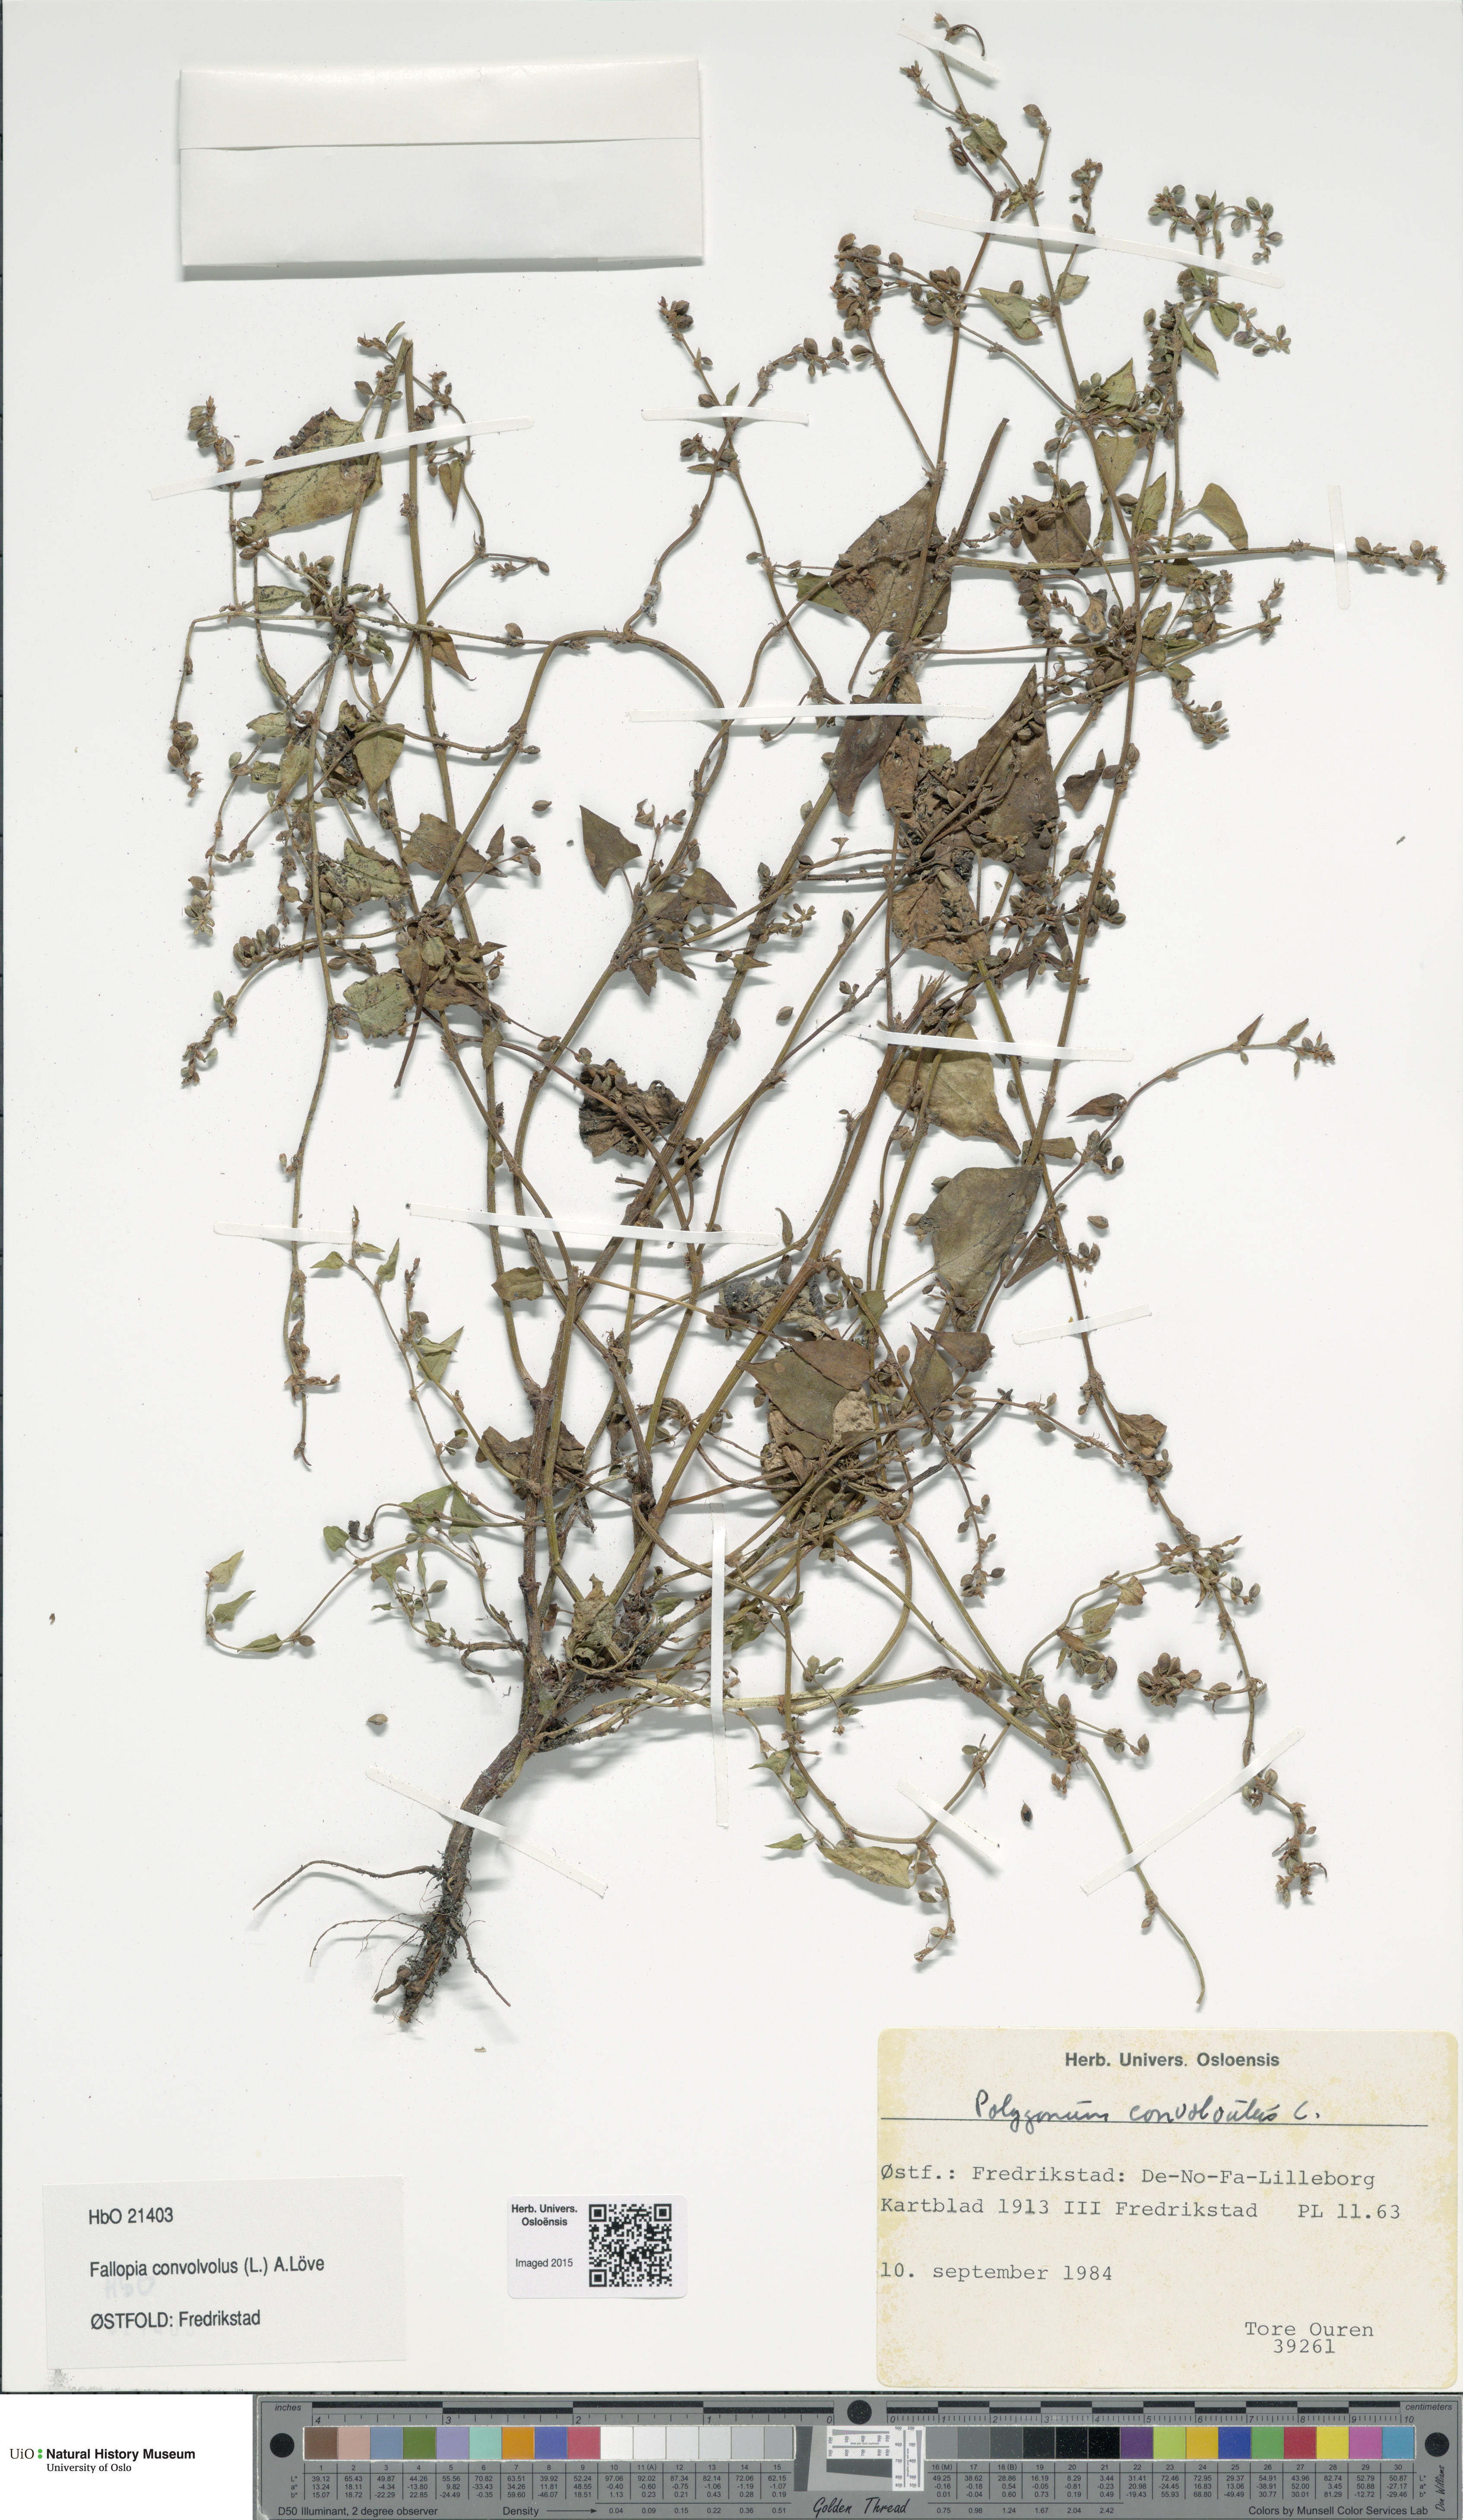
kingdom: Plantae
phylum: Tracheophyta
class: Magnoliopsida
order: Caryophyllales
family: Polygonaceae
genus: Fallopia
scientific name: Fallopia convolvulus
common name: Black bindweed
